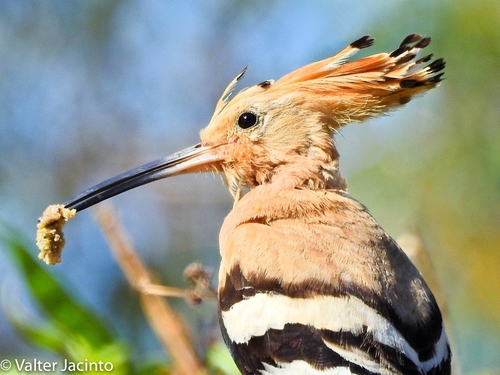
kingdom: Animalia
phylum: Chordata
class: Aves
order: Bucerotiformes
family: Upupidae
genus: Upupa
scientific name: Upupa epops
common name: Eurasian hoopoe
